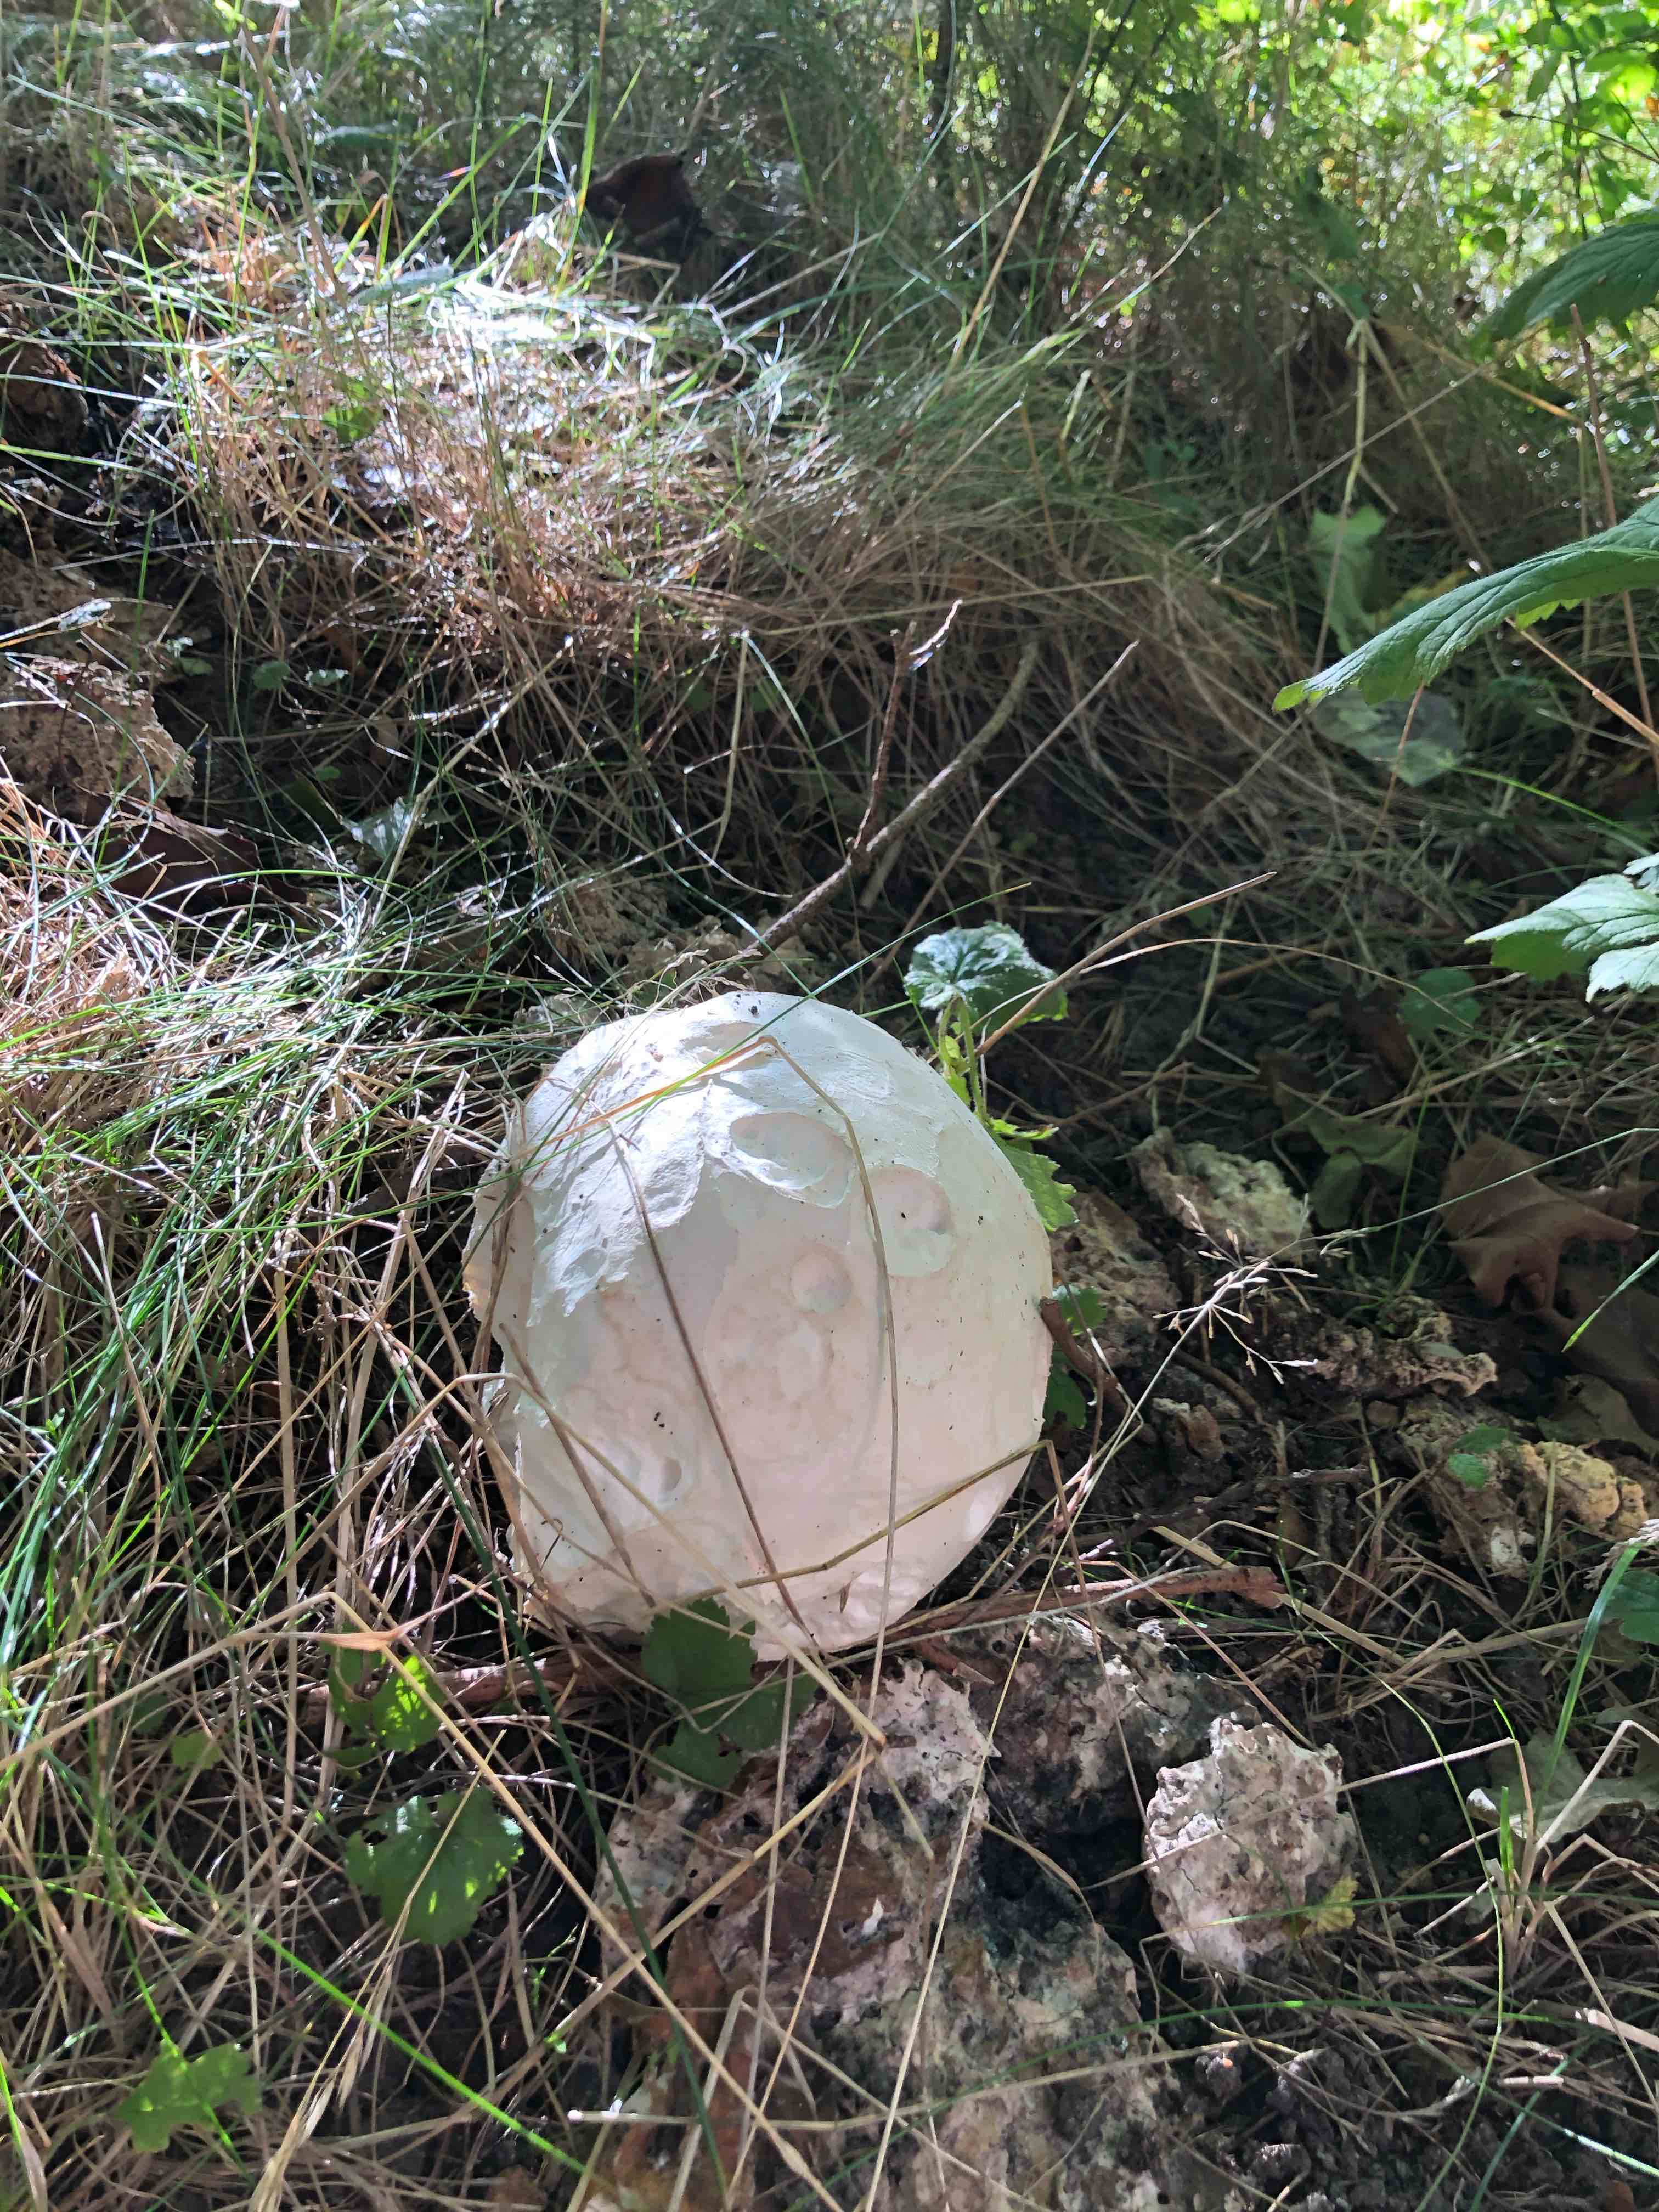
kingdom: Fungi
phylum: Basidiomycota
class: Agaricomycetes
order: Agaricales
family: Lycoperdaceae
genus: Calvatia
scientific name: Calvatia gigantea
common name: kæmpestøvbold
